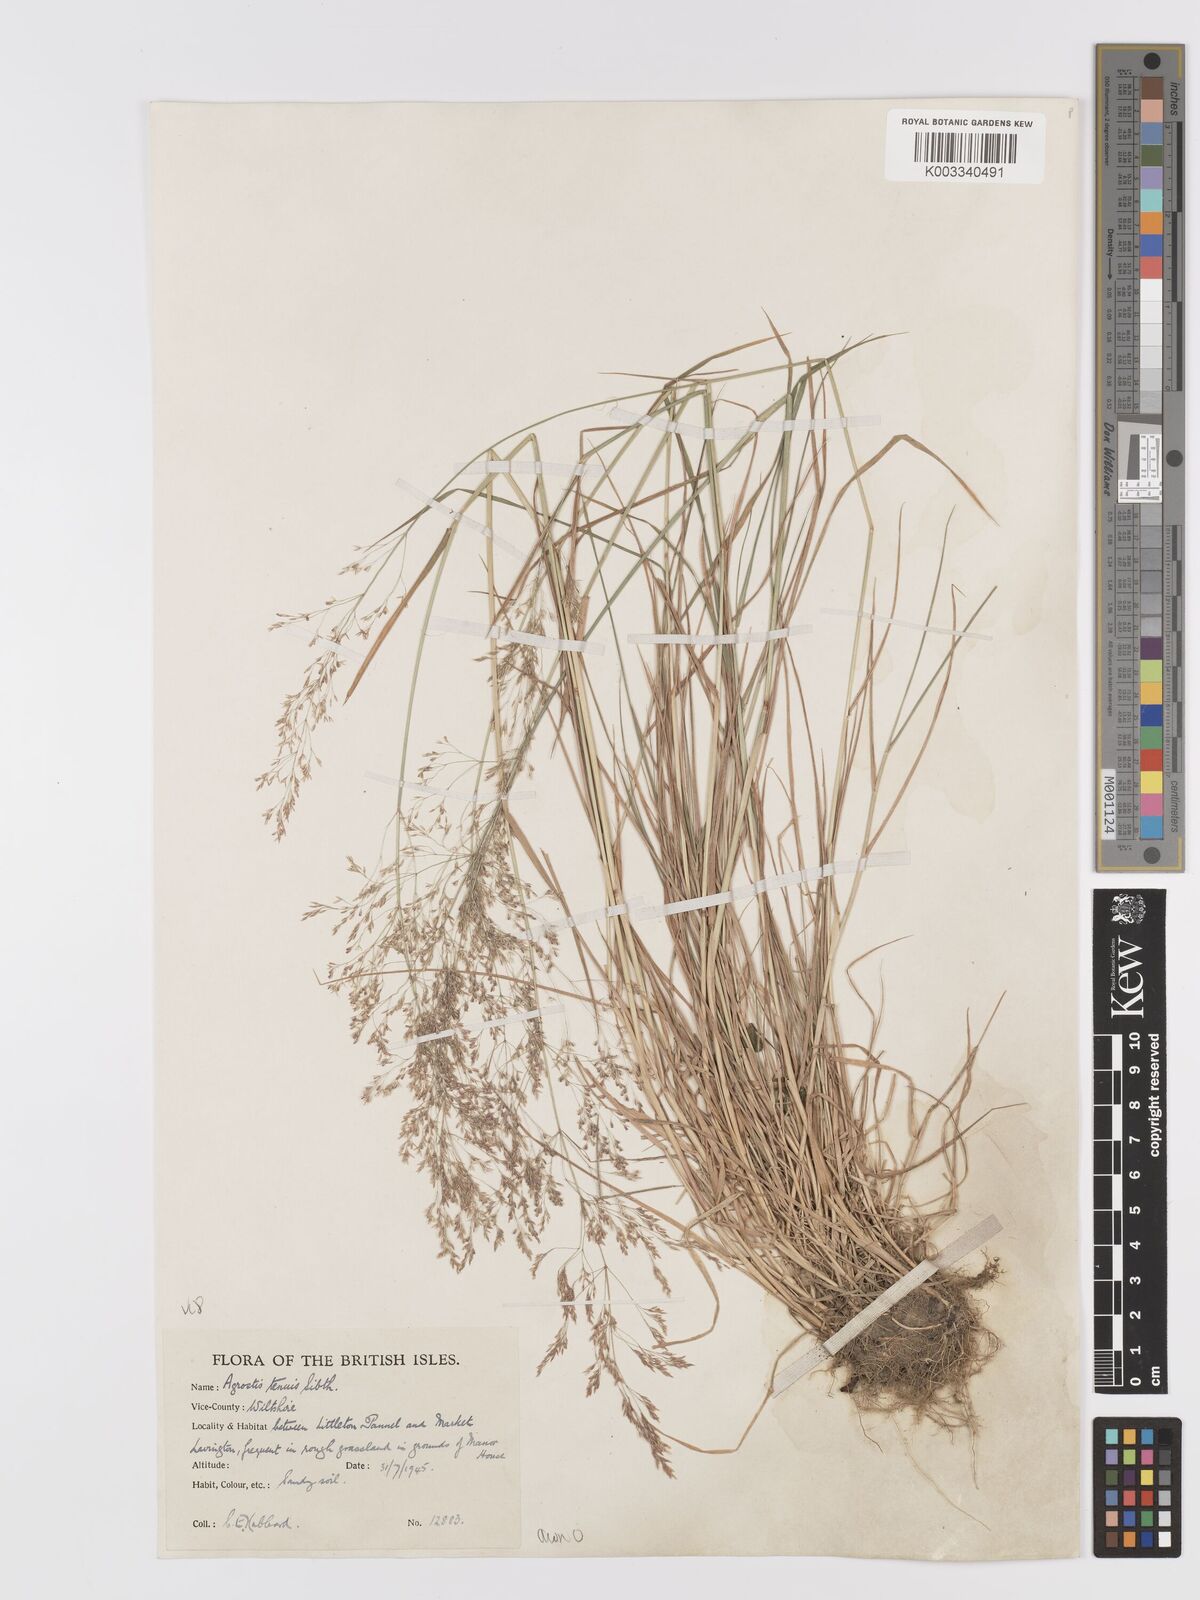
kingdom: Plantae
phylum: Tracheophyta
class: Liliopsida
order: Poales
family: Poaceae
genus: Agrostis
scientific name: Agrostis
